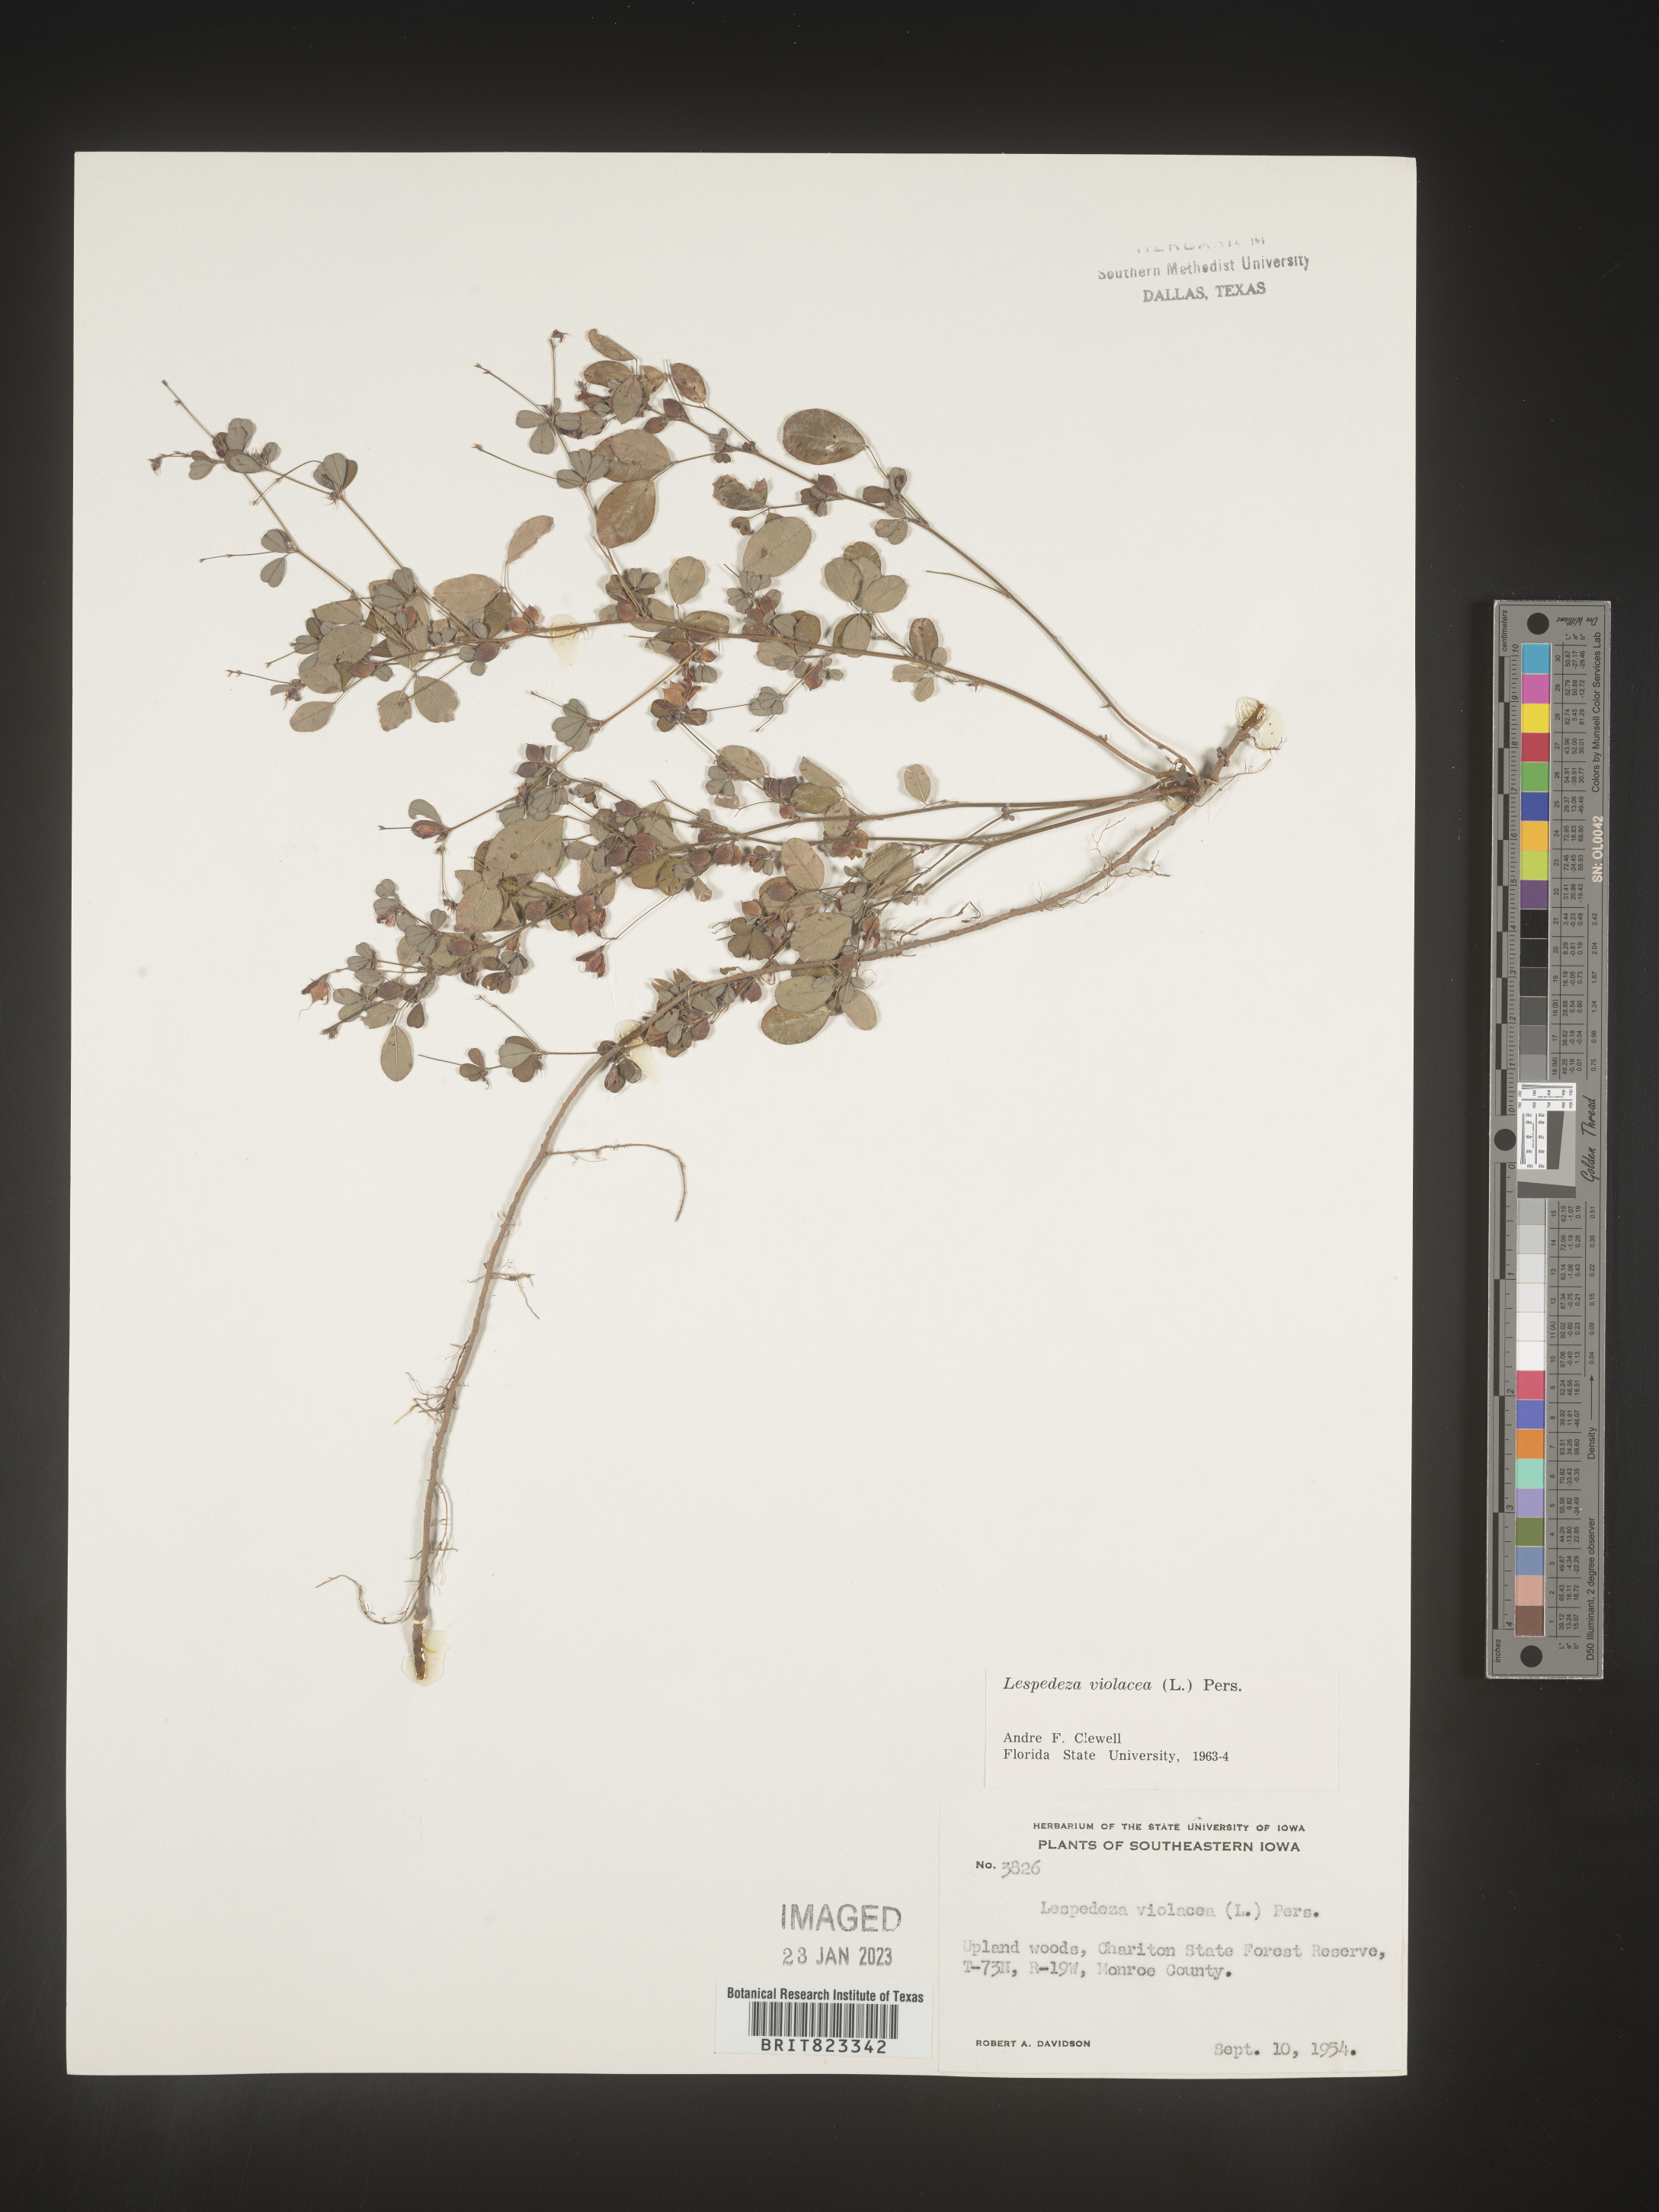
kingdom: Plantae
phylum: Tracheophyta
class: Magnoliopsida
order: Fabales
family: Fabaceae
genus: Lespedeza
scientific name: Lespedeza violacea
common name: Wand bush-clover
